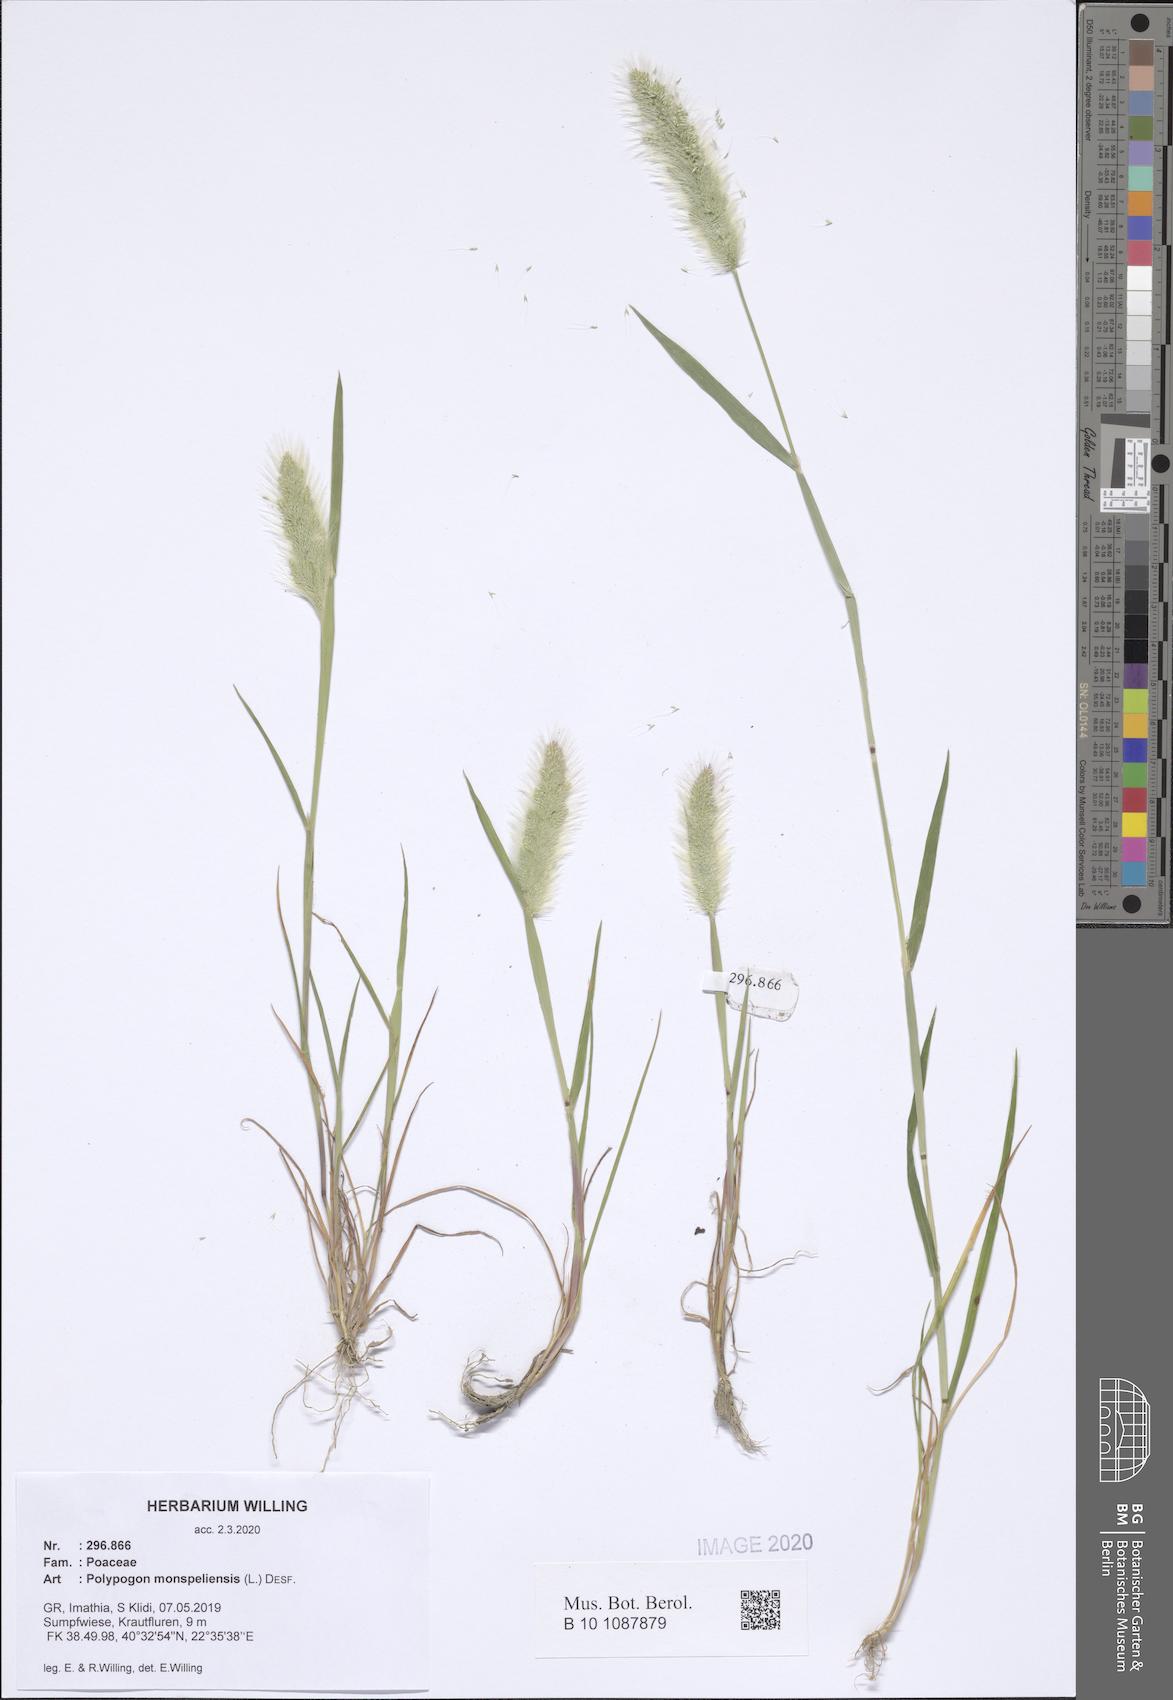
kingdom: Plantae
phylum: Tracheophyta
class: Liliopsida
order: Poales
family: Poaceae
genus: Polypogon
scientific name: Polypogon monspeliensis
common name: Annual rabbitsfoot grass
